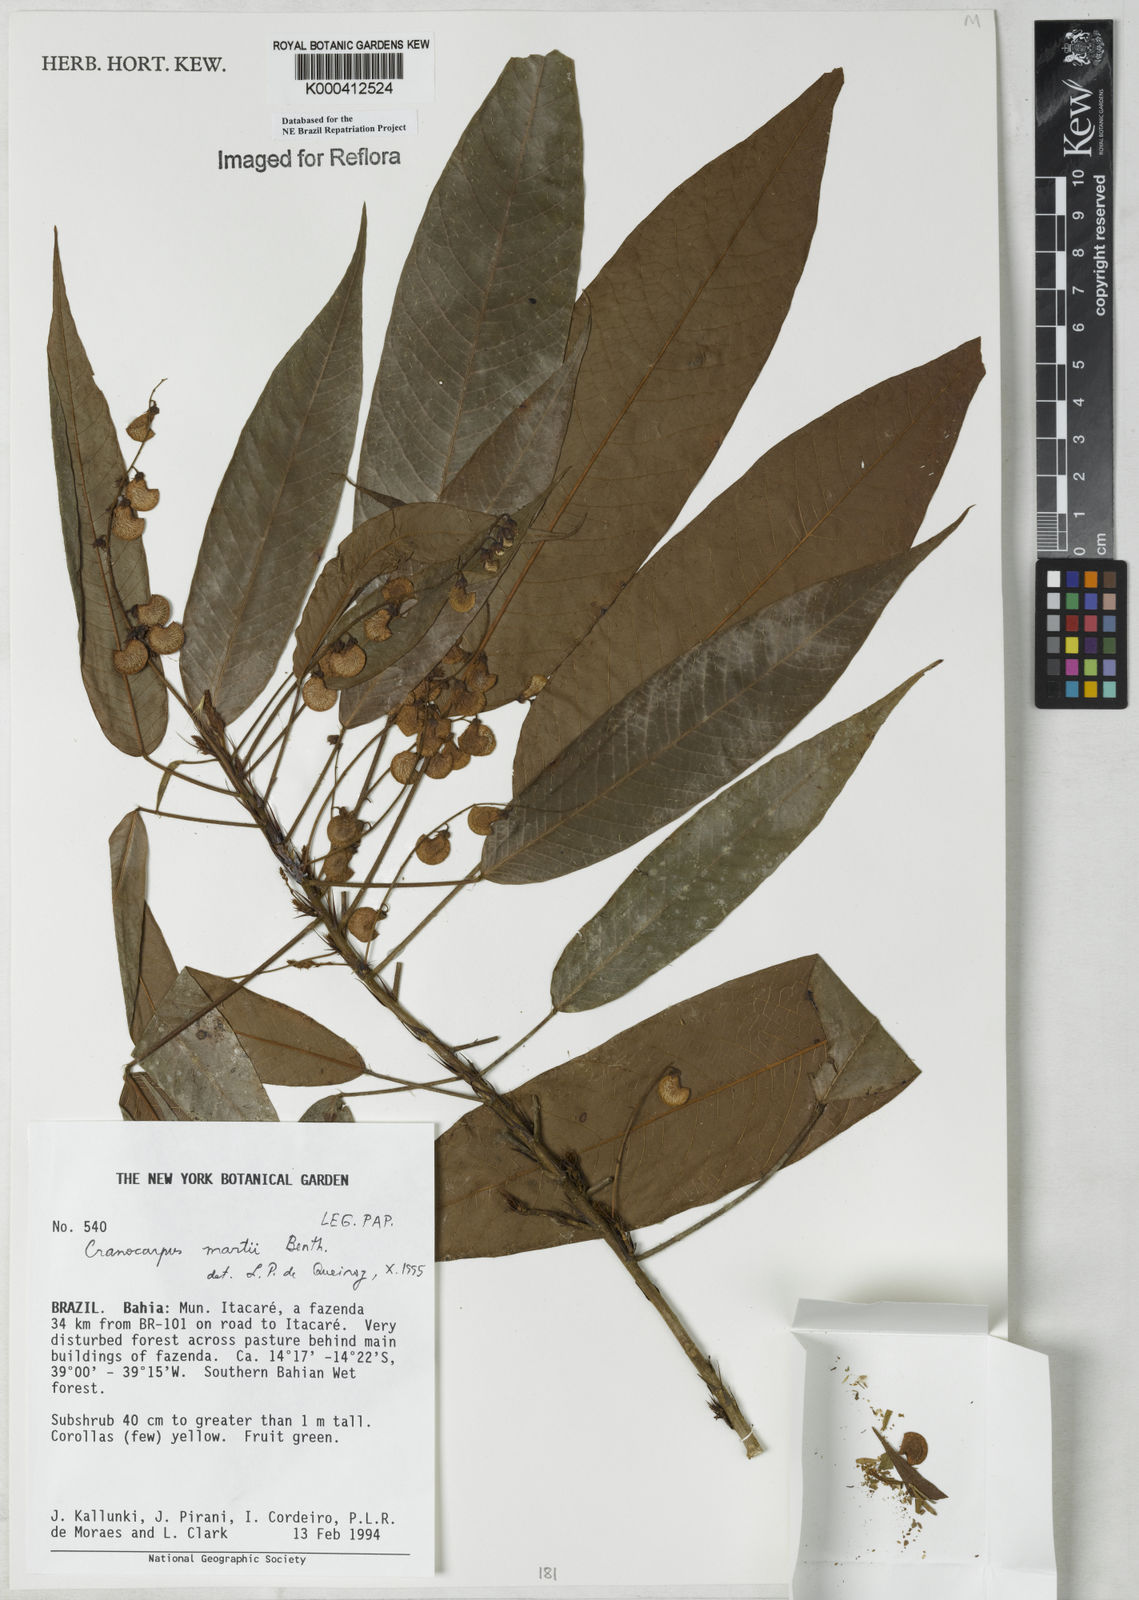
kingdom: Plantae
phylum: Tracheophyta
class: Magnoliopsida
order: Fabales
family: Fabaceae
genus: Cranocarpus
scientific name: Cranocarpus martii
